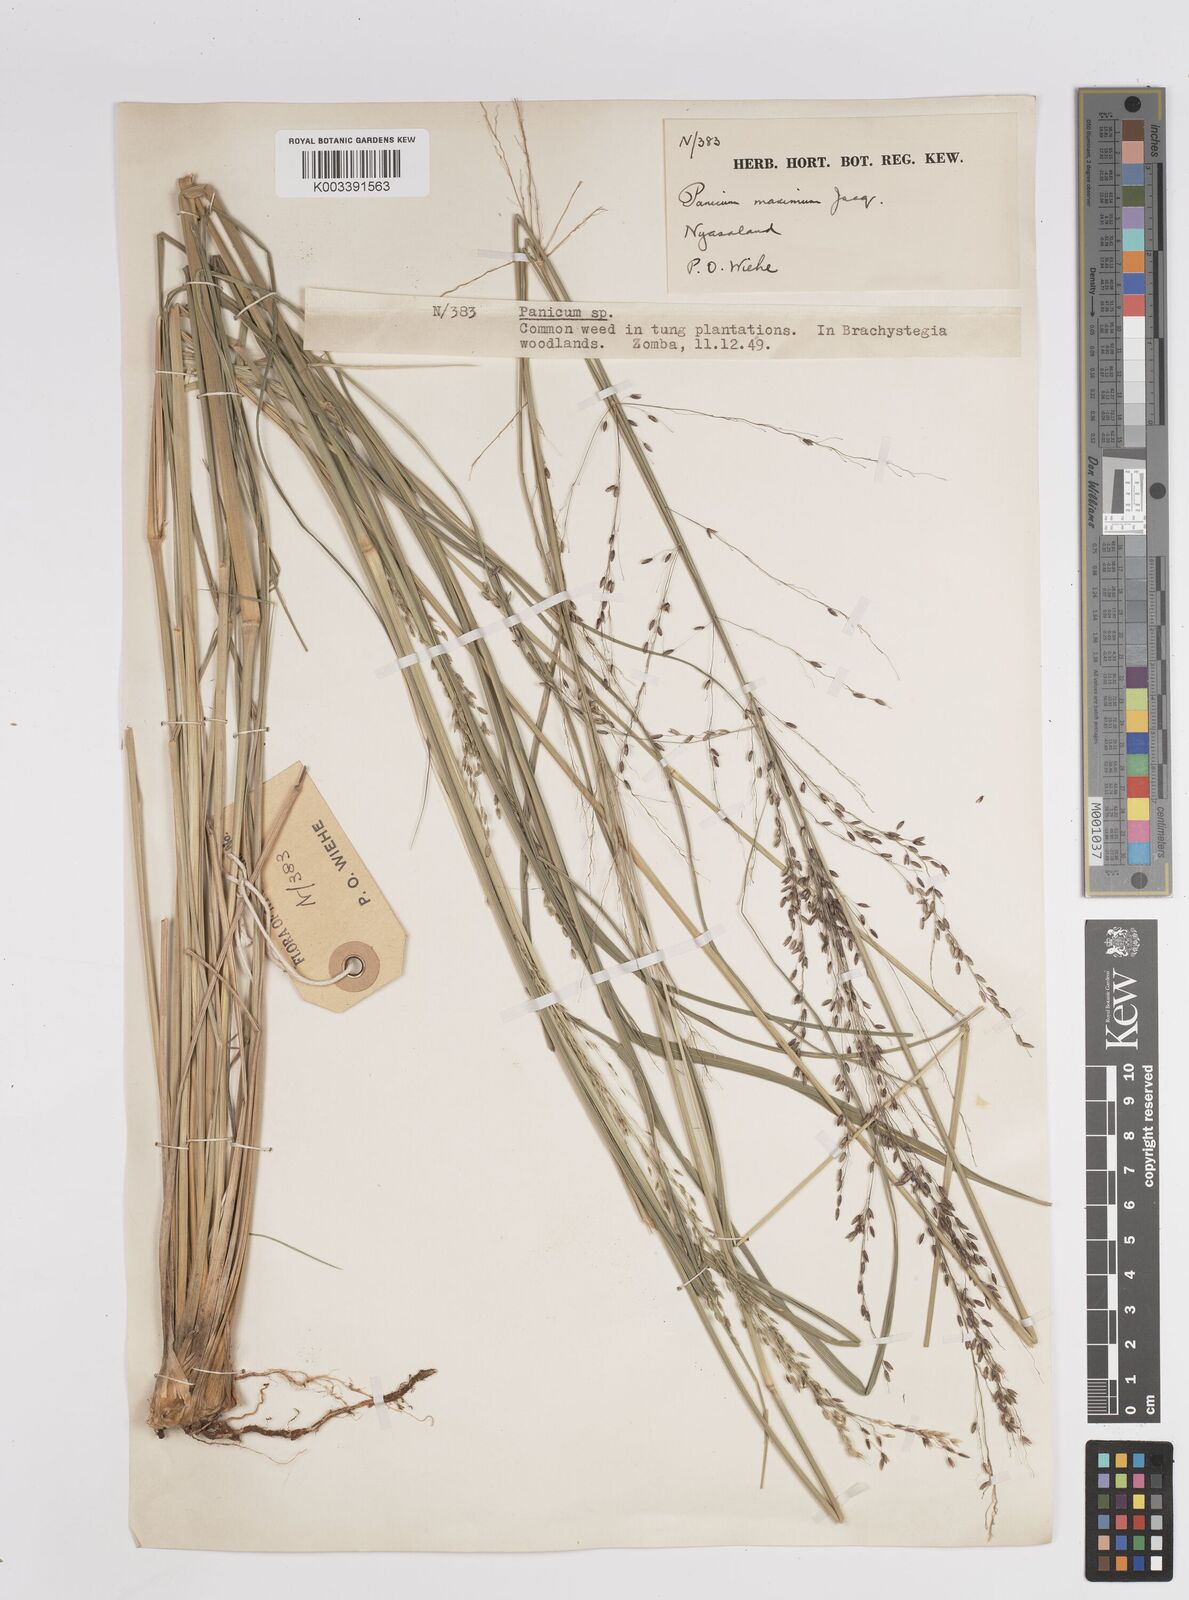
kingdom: Plantae
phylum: Tracheophyta
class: Liliopsida
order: Poales
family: Poaceae
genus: Megathyrsus
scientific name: Megathyrsus maximus
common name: Guineagrass
